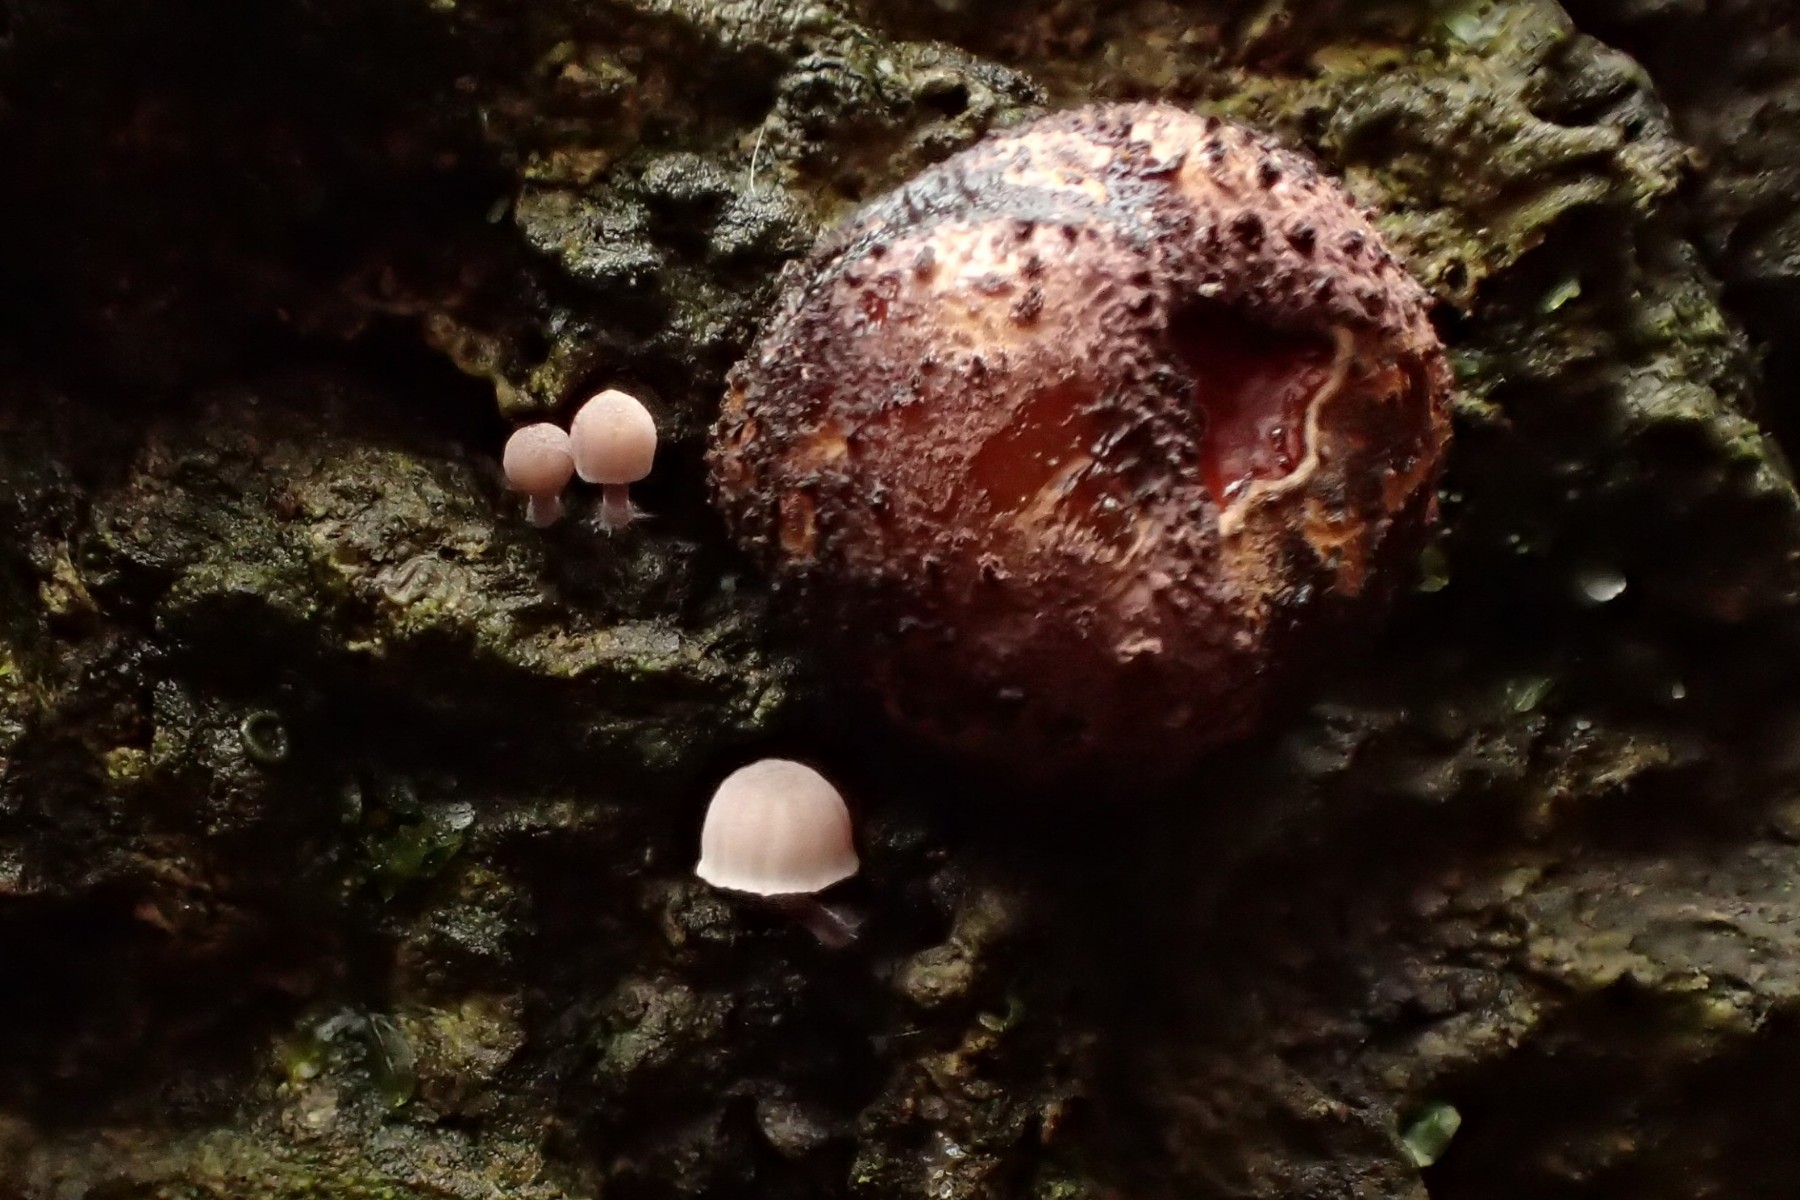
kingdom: Fungi
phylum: Basidiomycota
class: Agaricomycetes
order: Agaricales
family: Mycenaceae
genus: Mycena
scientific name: Mycena meliigena
